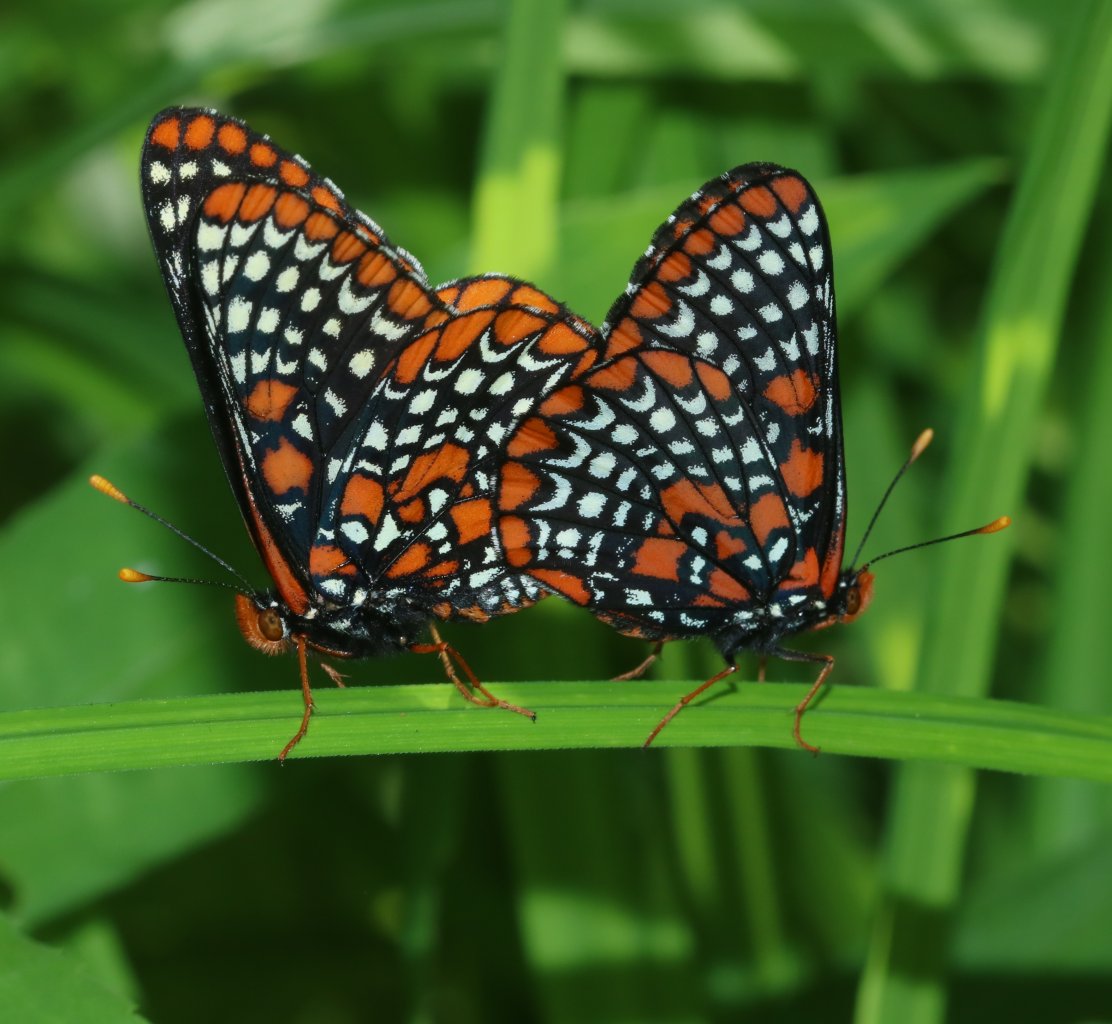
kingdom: Animalia
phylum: Arthropoda
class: Insecta
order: Lepidoptera
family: Nymphalidae
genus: Euphydryas
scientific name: Euphydryas phaeton
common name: Baltimore Checkerspot
